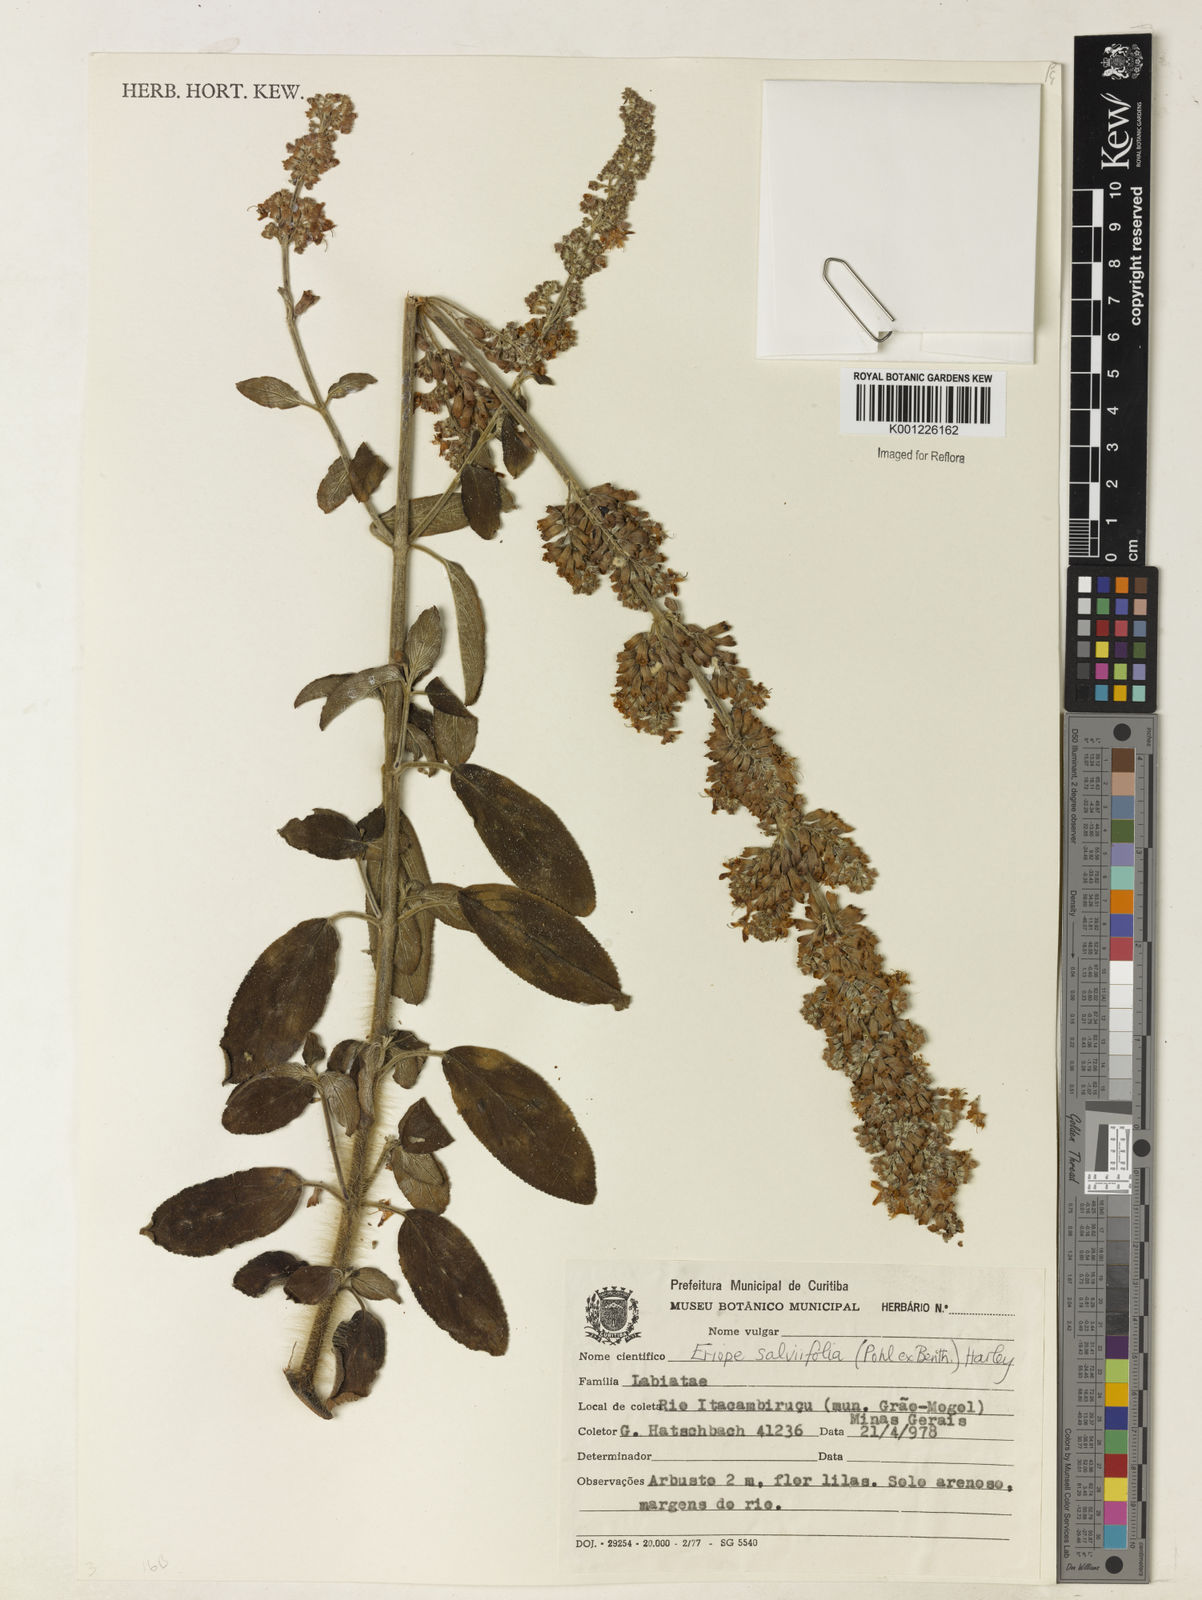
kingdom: Plantae
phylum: Tracheophyta
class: Magnoliopsida
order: Lamiales
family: Lamiaceae
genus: Eriope
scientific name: Eriope salviifolia
